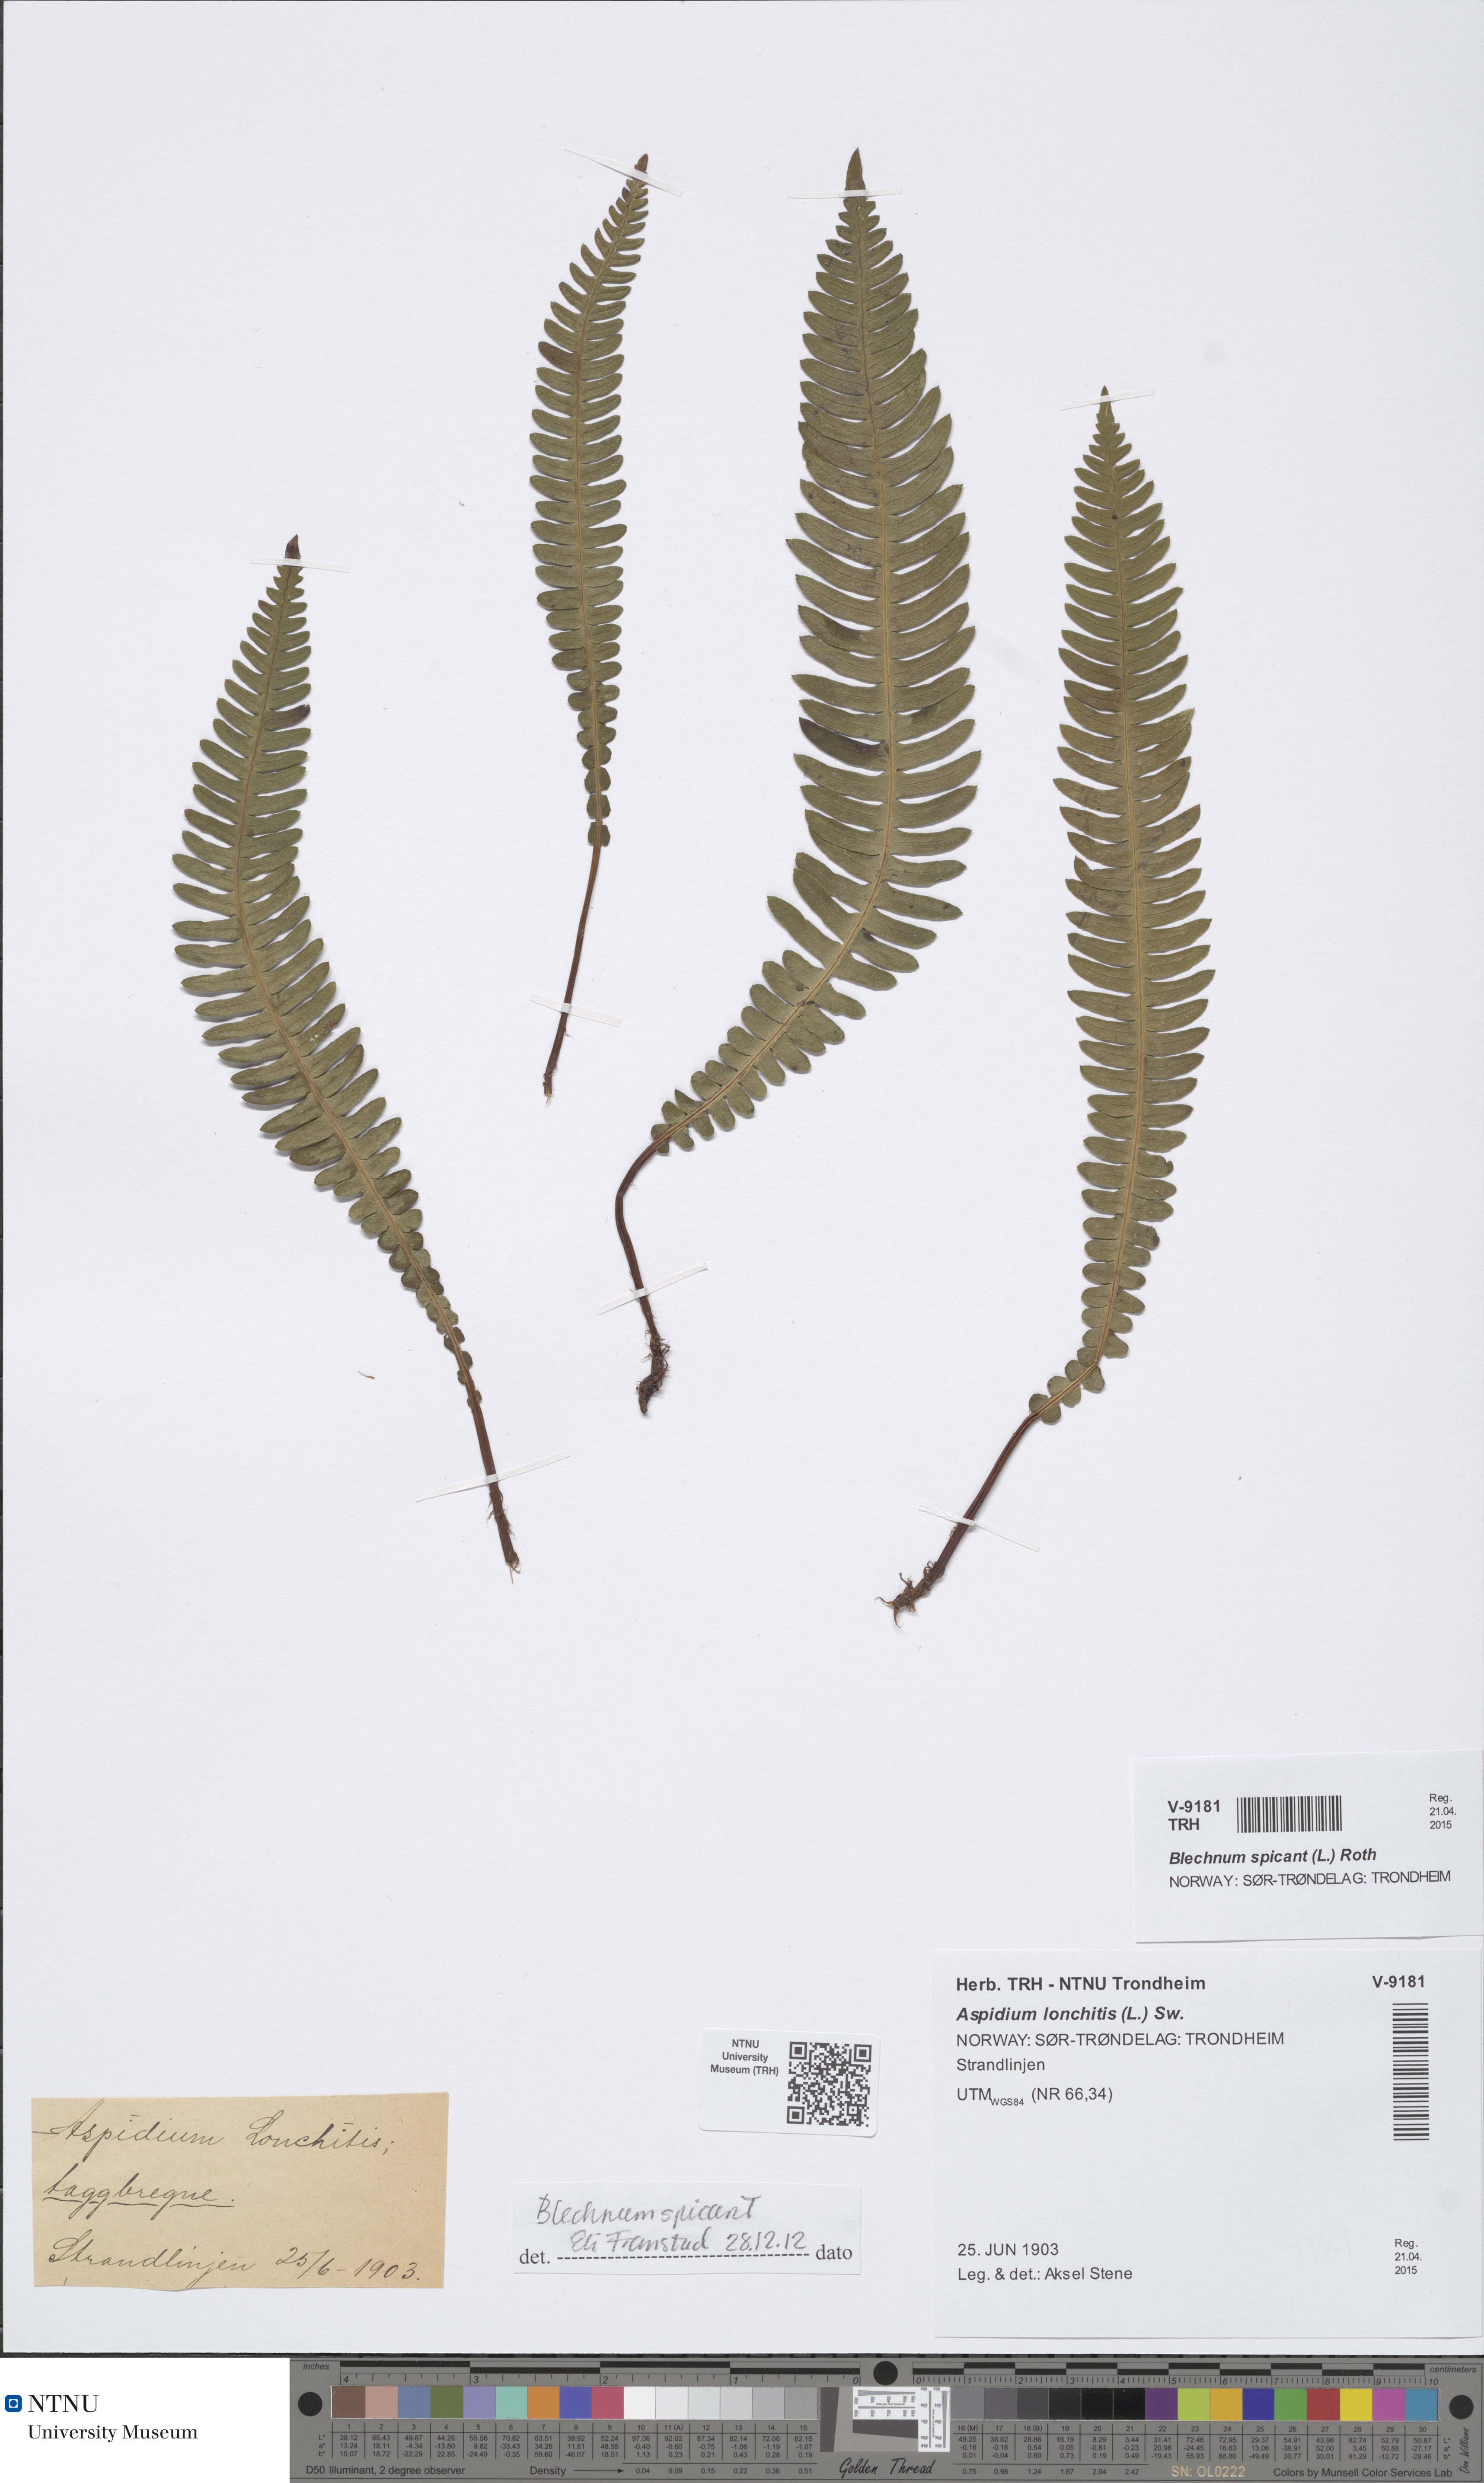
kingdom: Plantae
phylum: Tracheophyta
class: Polypodiopsida
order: Polypodiales
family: Blechnaceae
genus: Struthiopteris
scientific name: Struthiopteris spicant
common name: Deer fern
